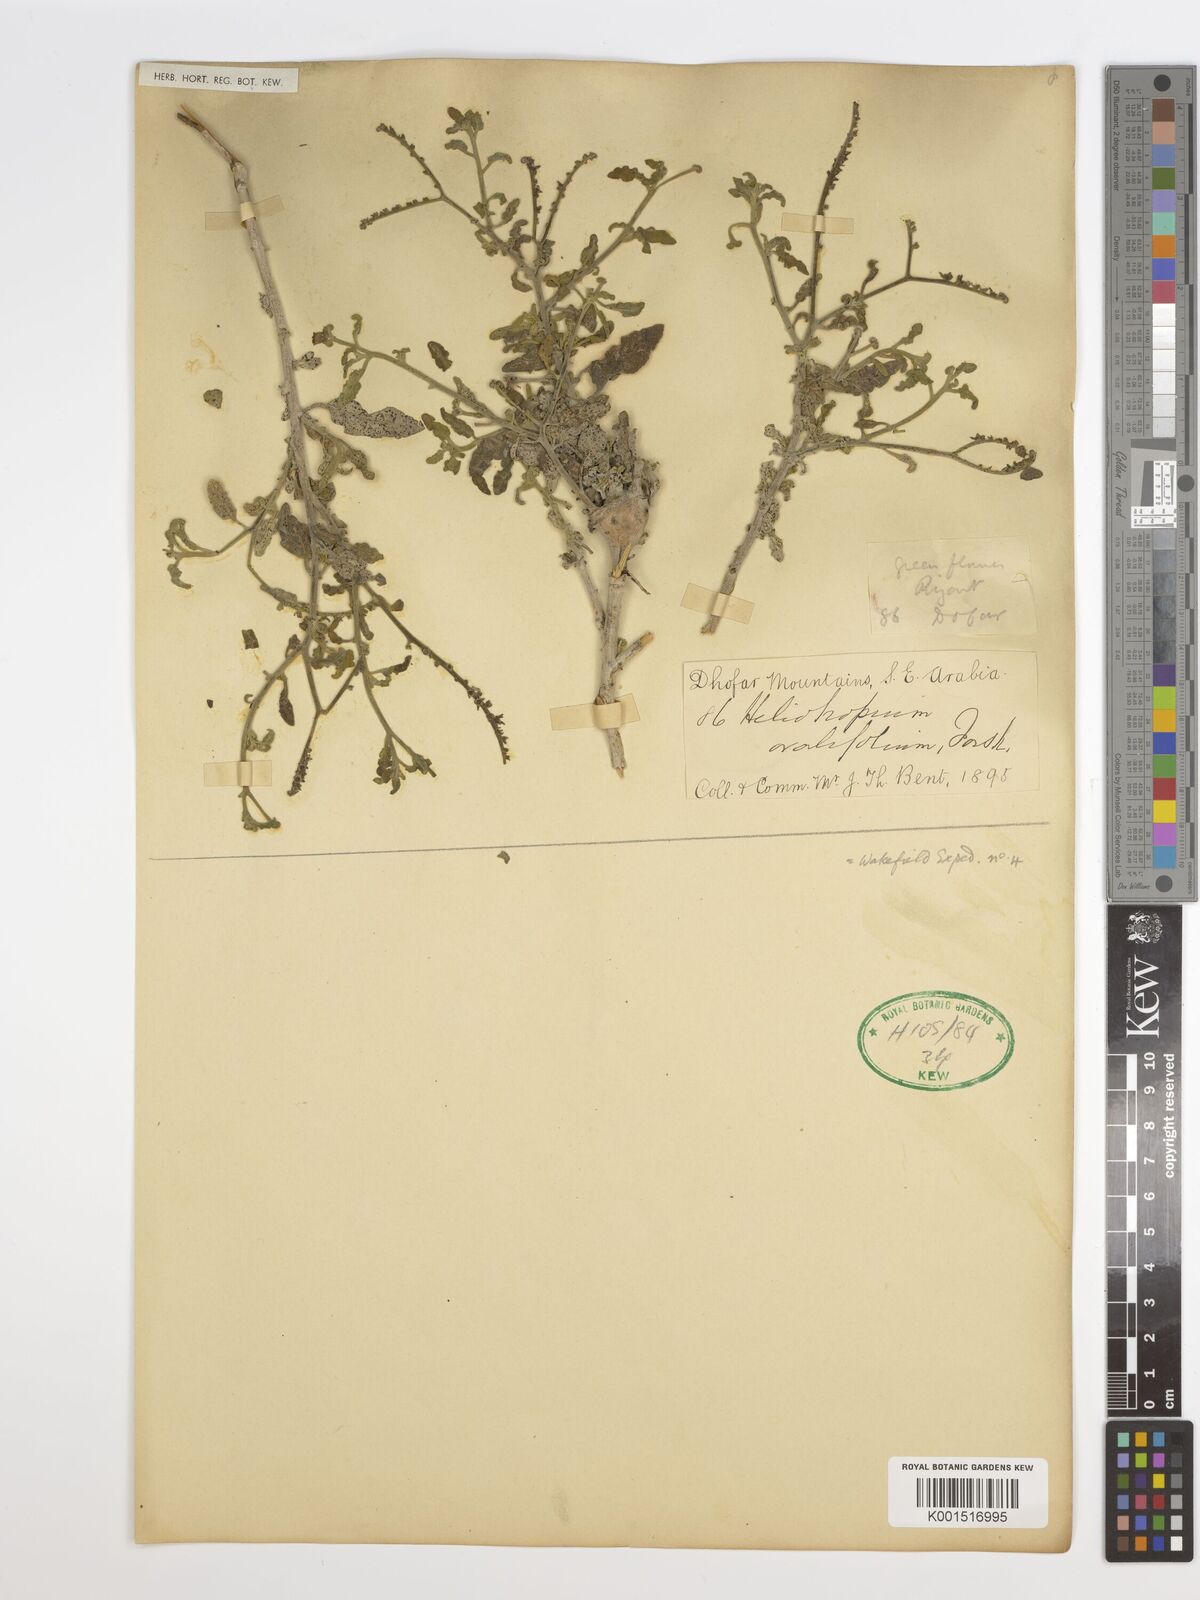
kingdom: Plantae
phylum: Tracheophyta
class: Magnoliopsida
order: Boraginales
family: Heliotropiaceae
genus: Euploca
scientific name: Euploca ovalifolia
